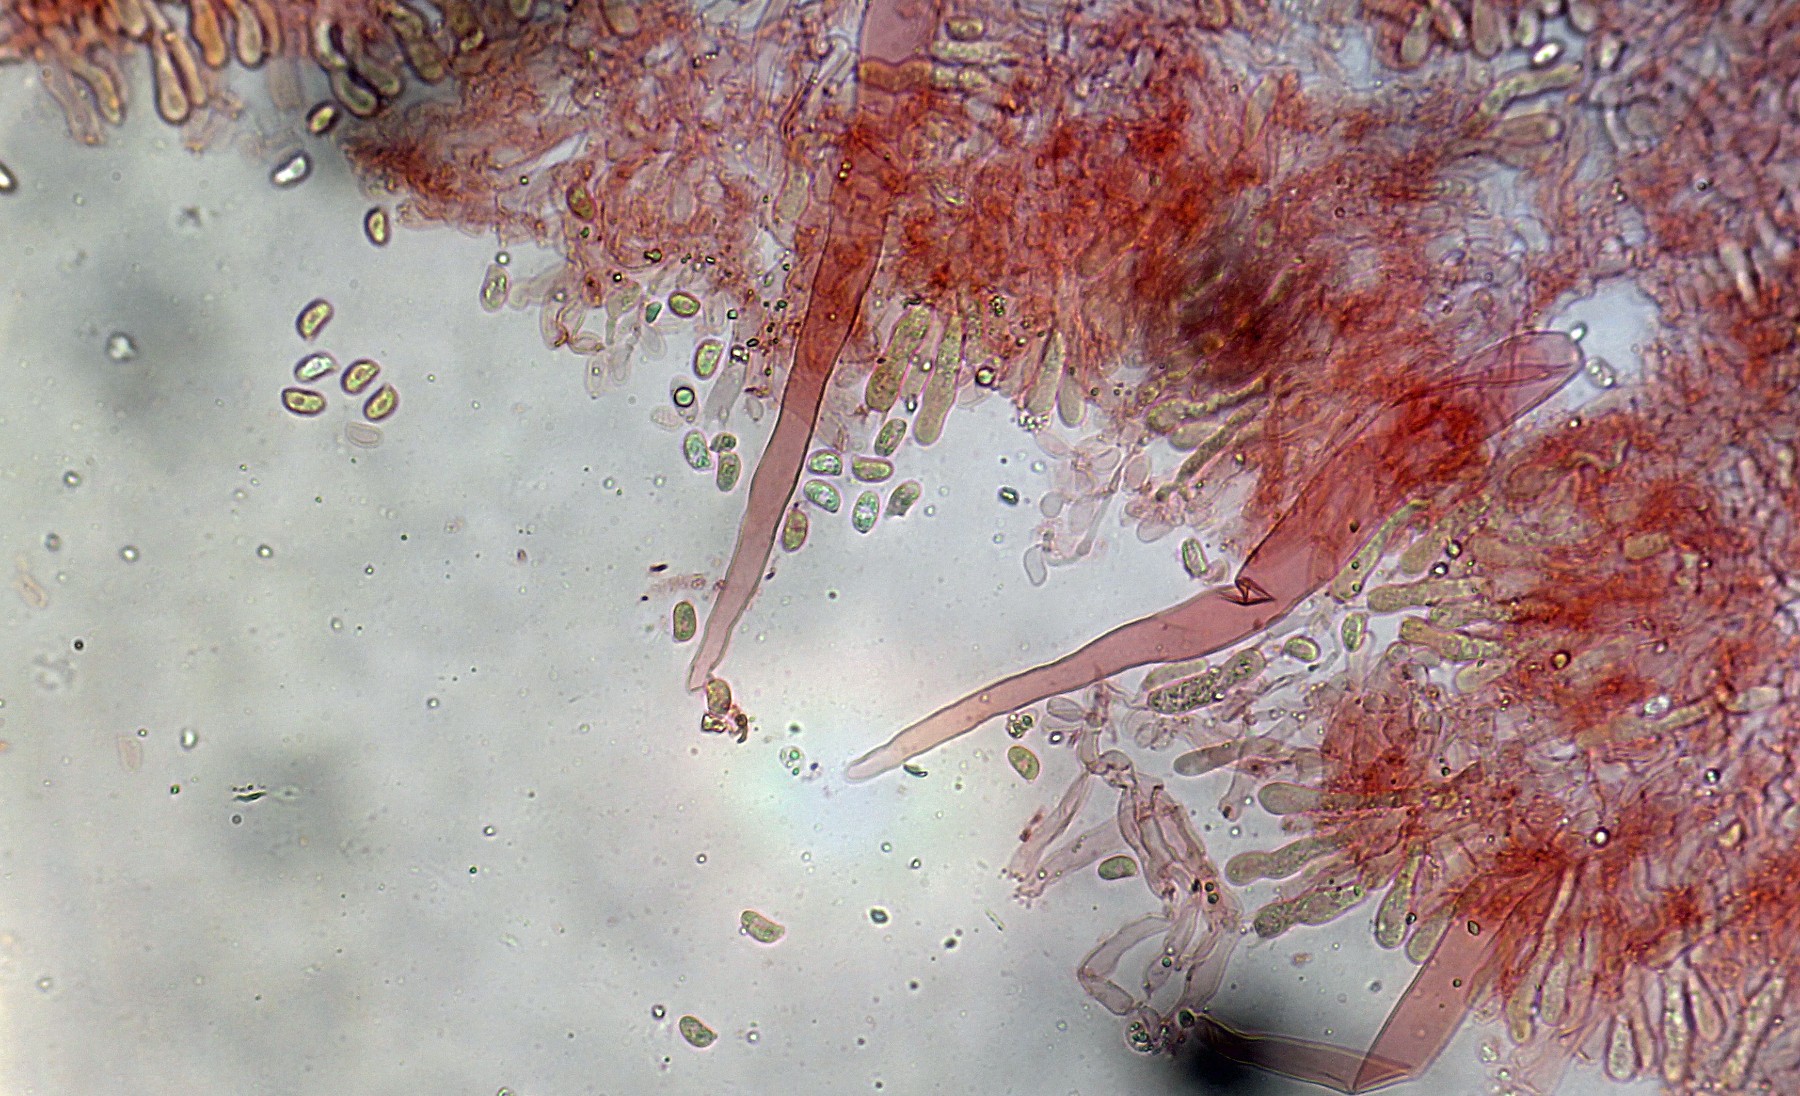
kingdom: Fungi
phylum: Basidiomycota
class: Agaricomycetes
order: Hymenochaetales
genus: Kurtia
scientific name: Kurtia argillacea
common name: Kurts kalkskind
